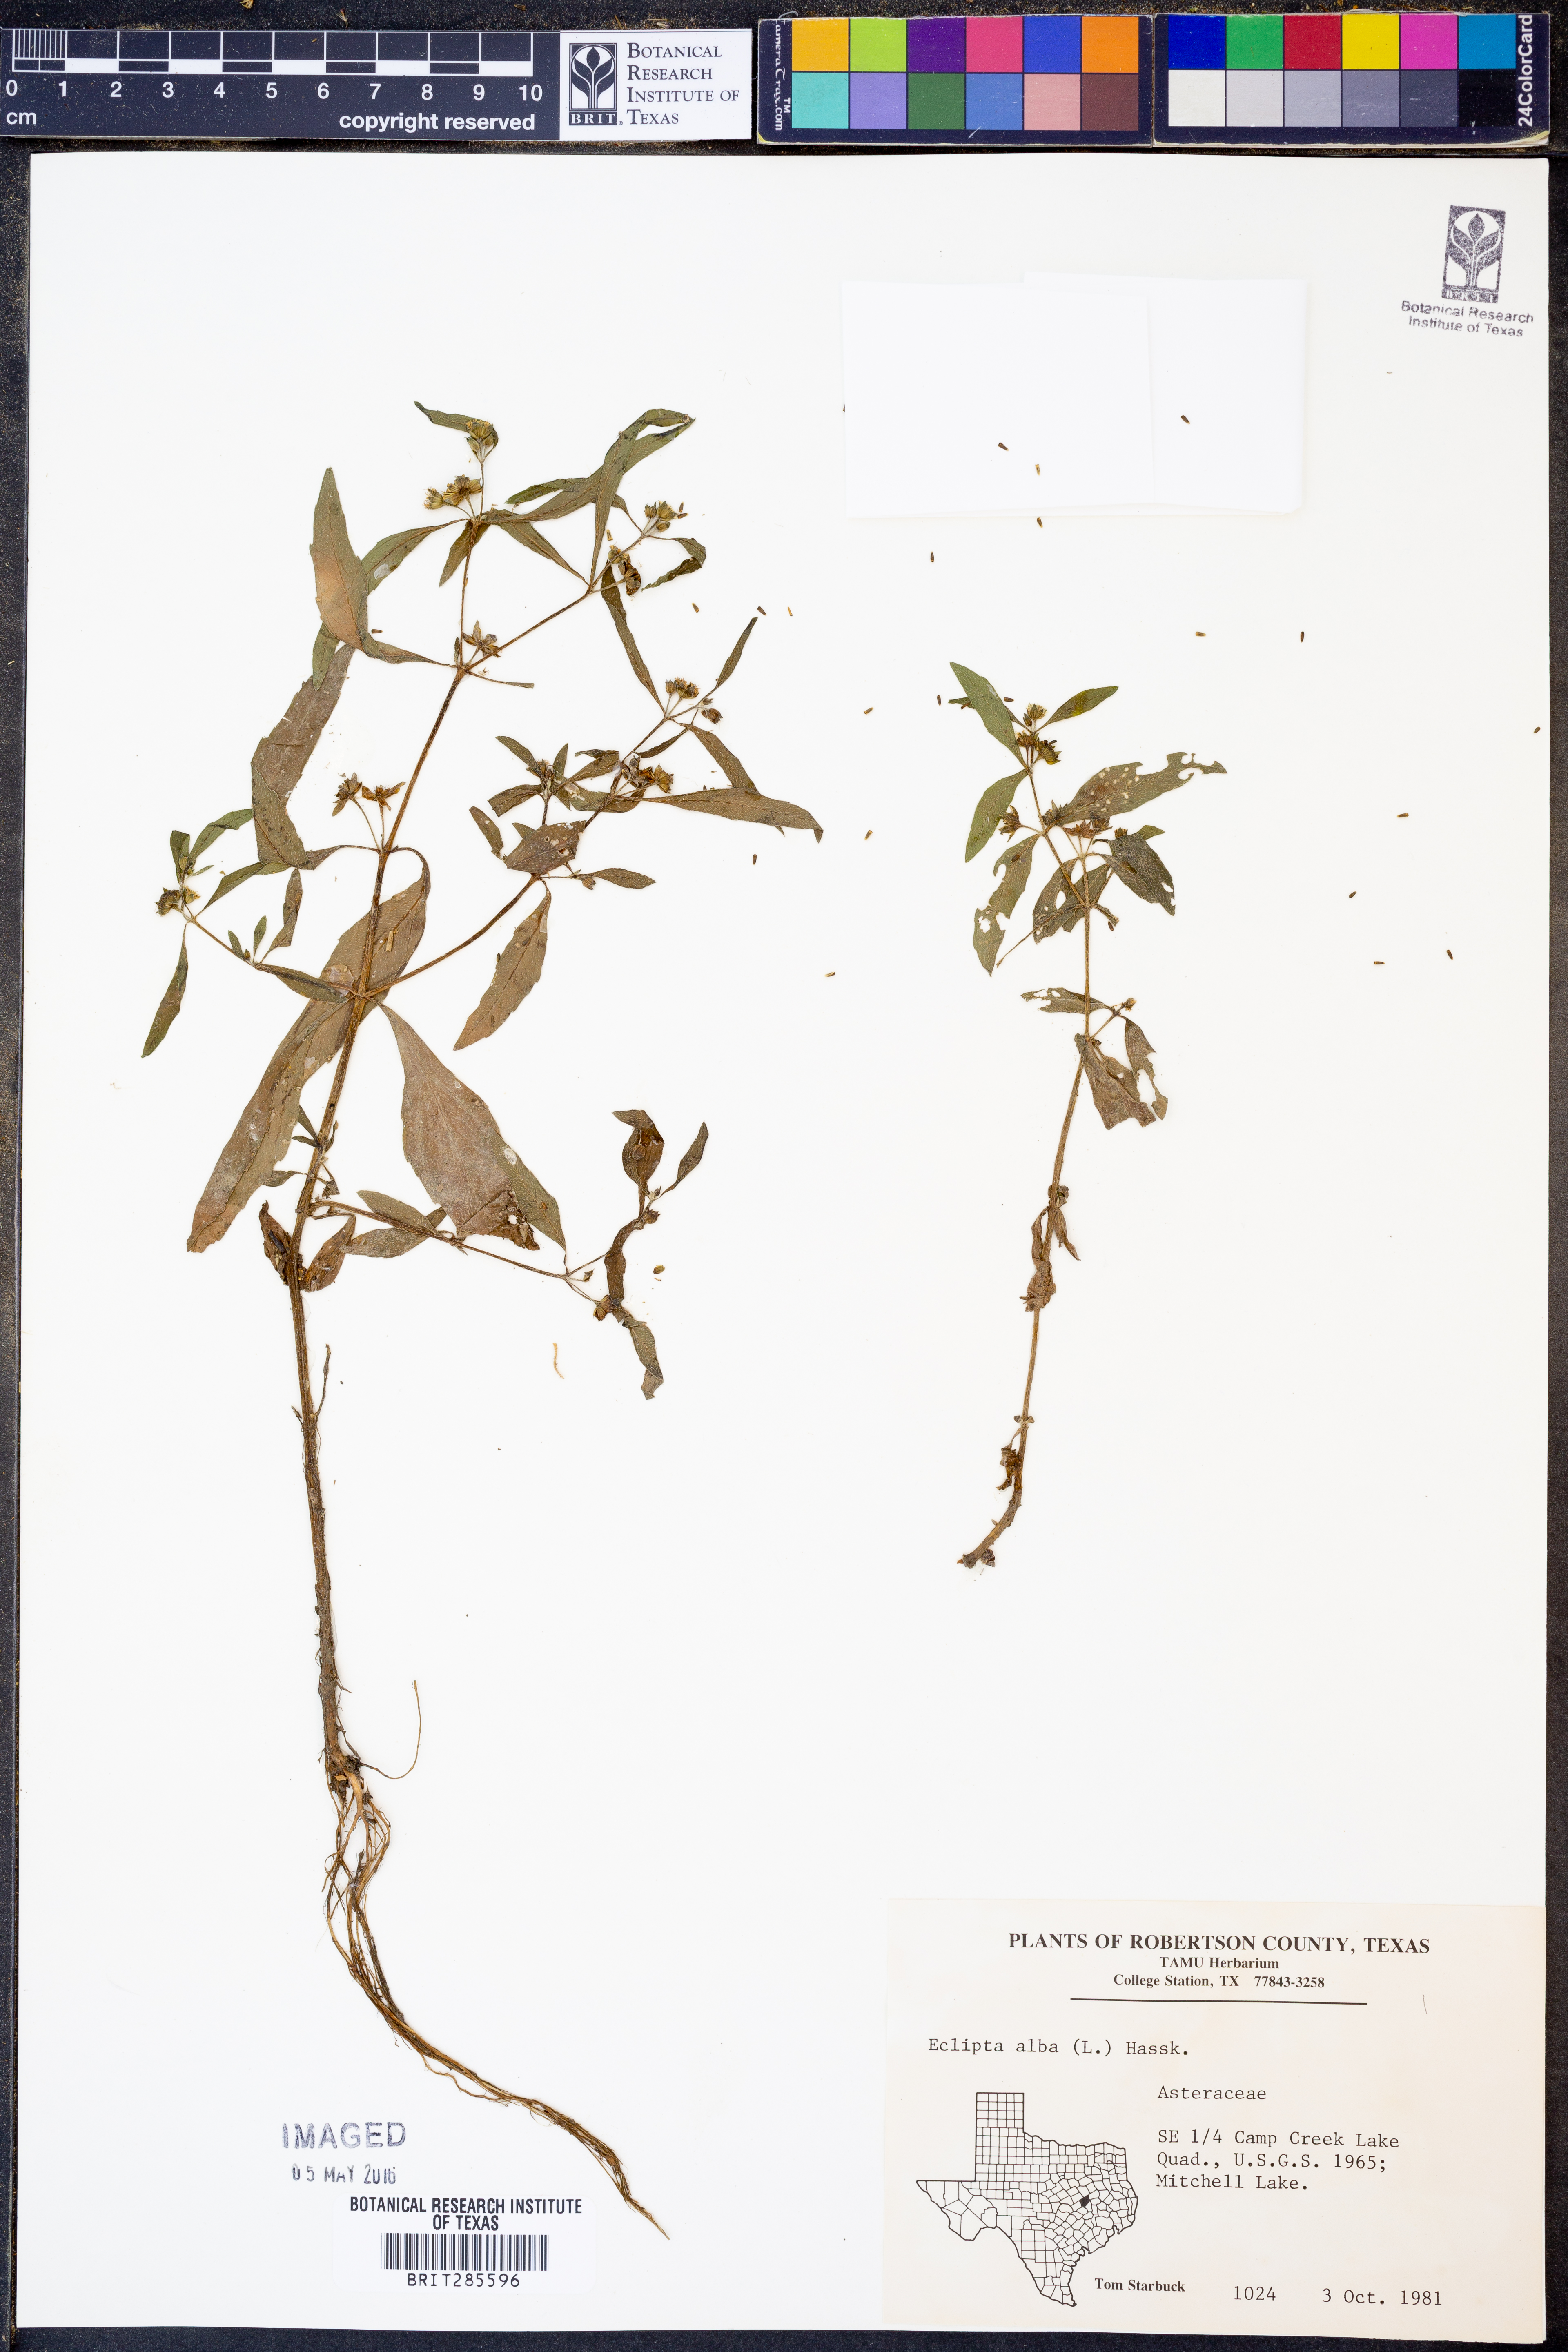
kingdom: Plantae
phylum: Tracheophyta
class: Magnoliopsida
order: Asterales
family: Asteraceae
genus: Eclipta
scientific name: Eclipta alba
